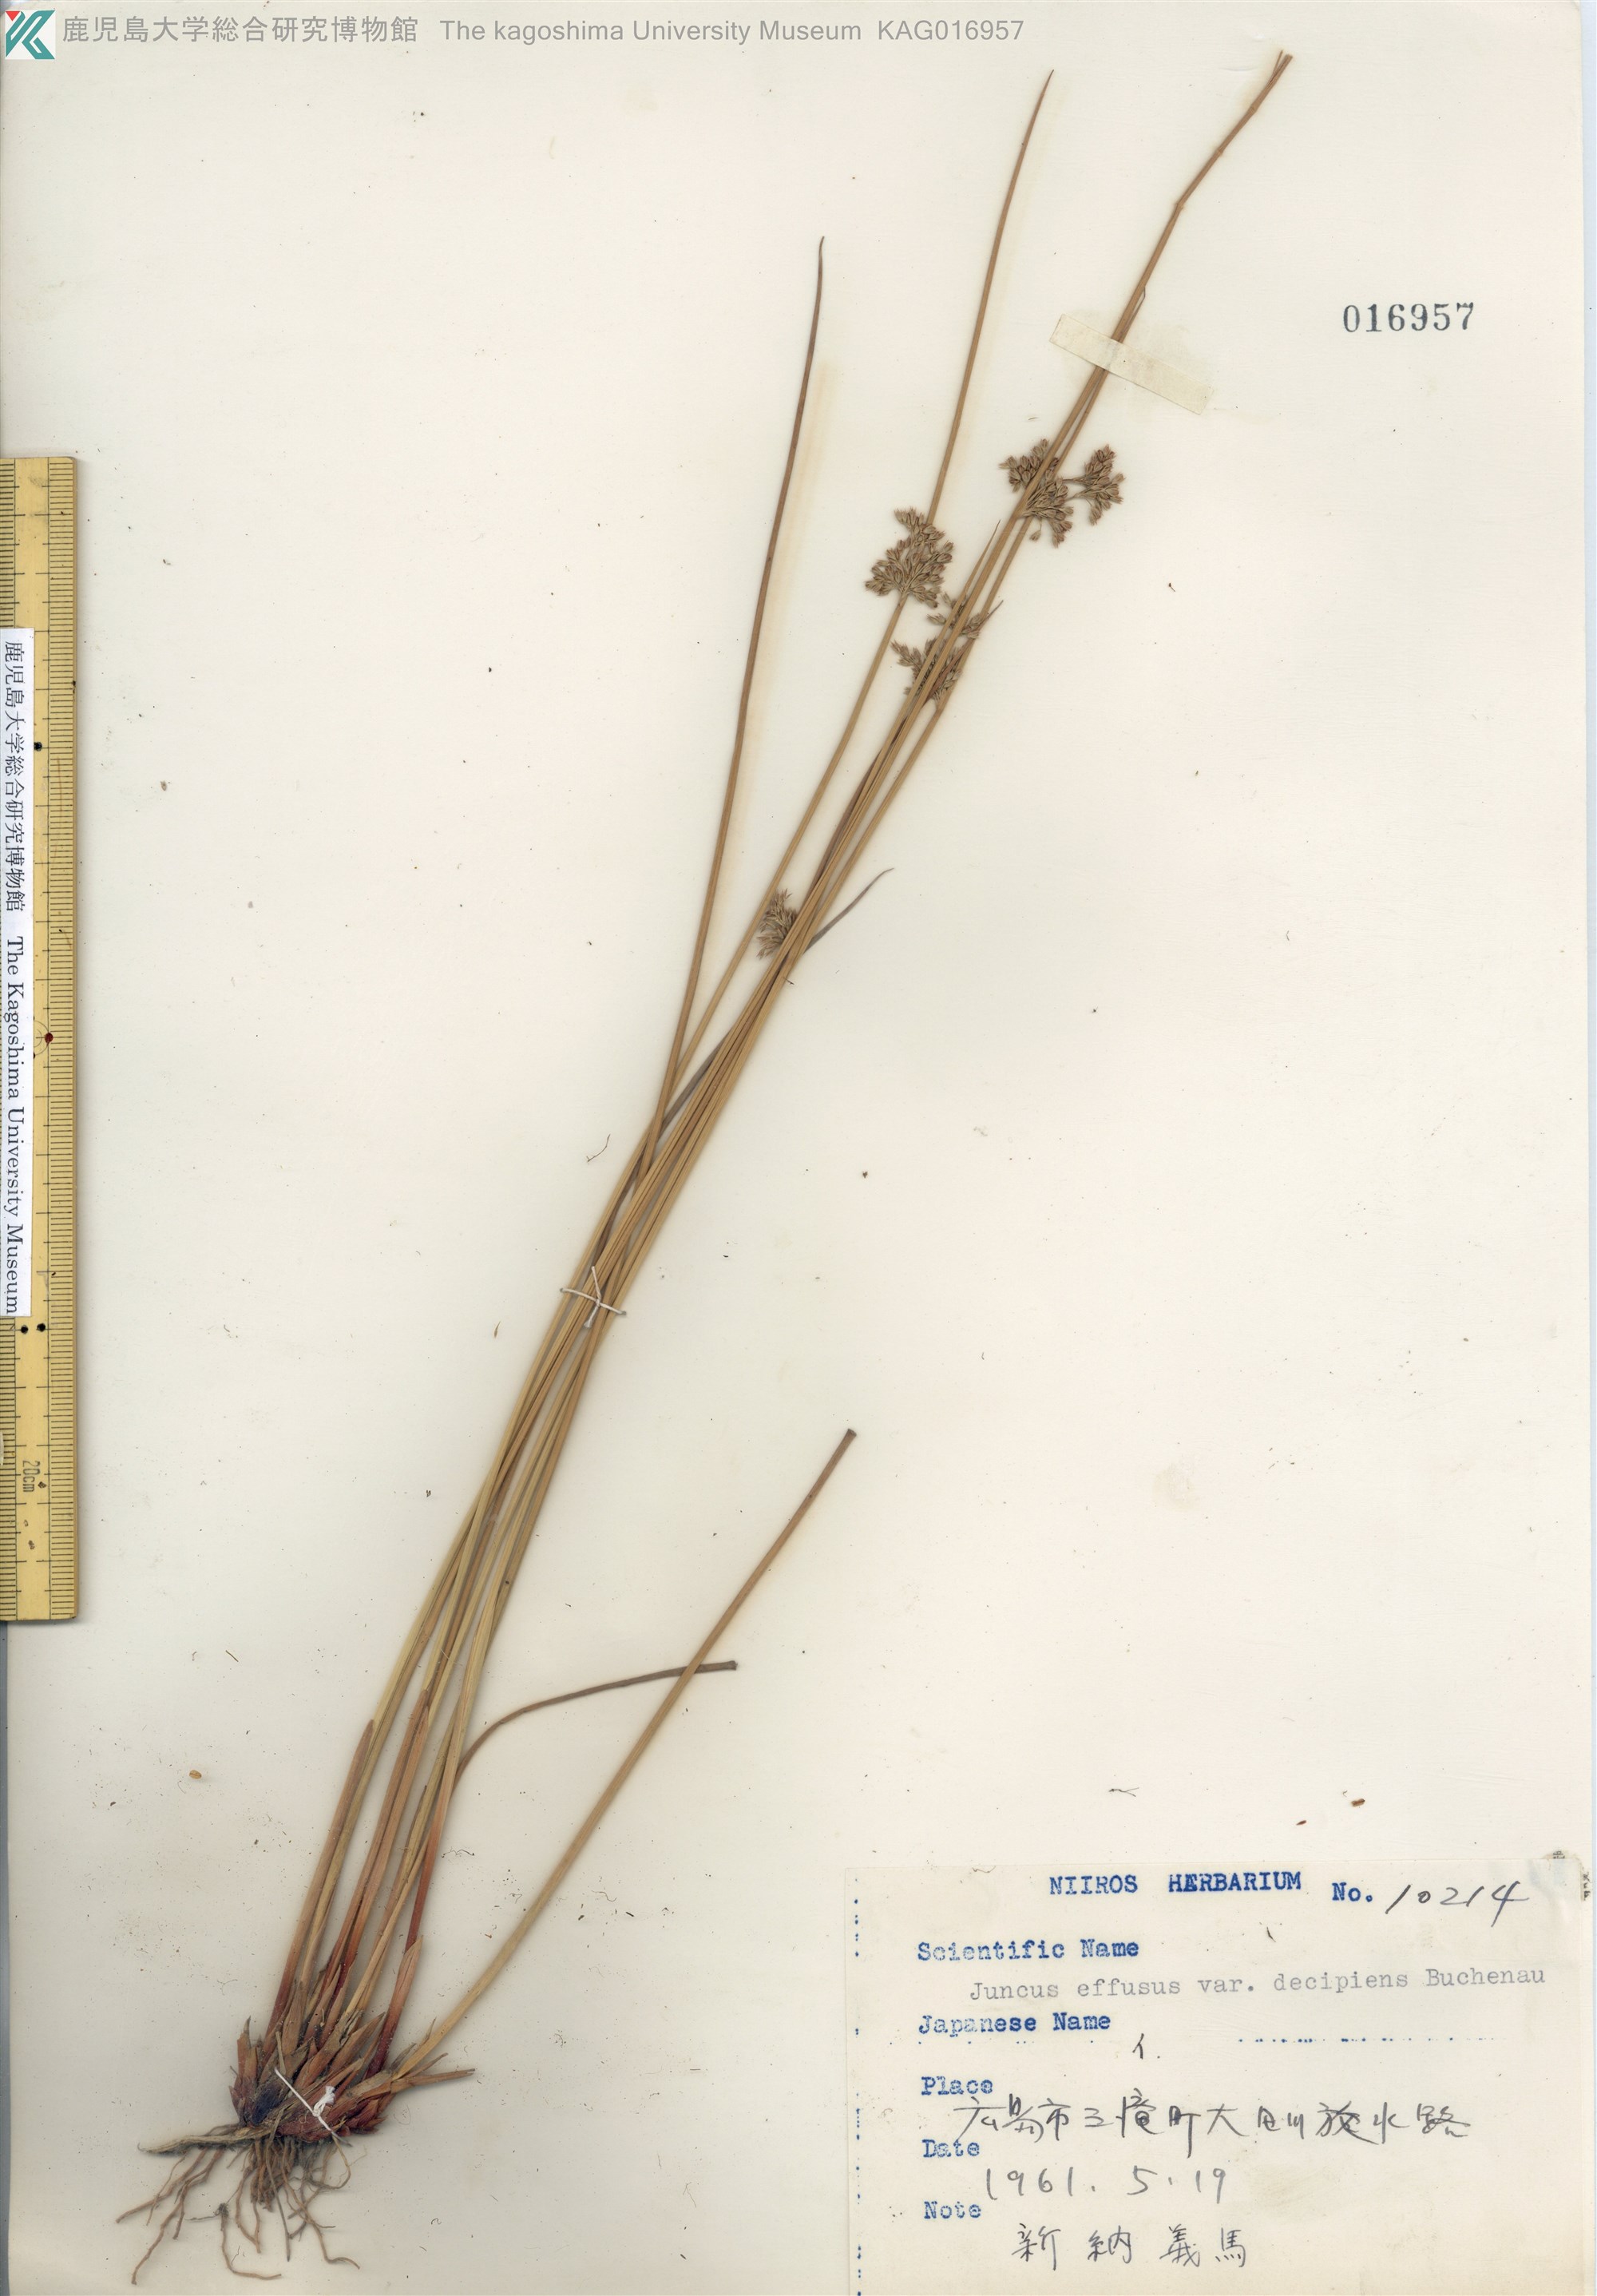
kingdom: Plantae
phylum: Tracheophyta
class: Liliopsida
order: Poales
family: Juncaceae
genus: Juncus
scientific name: Juncus decipiens
